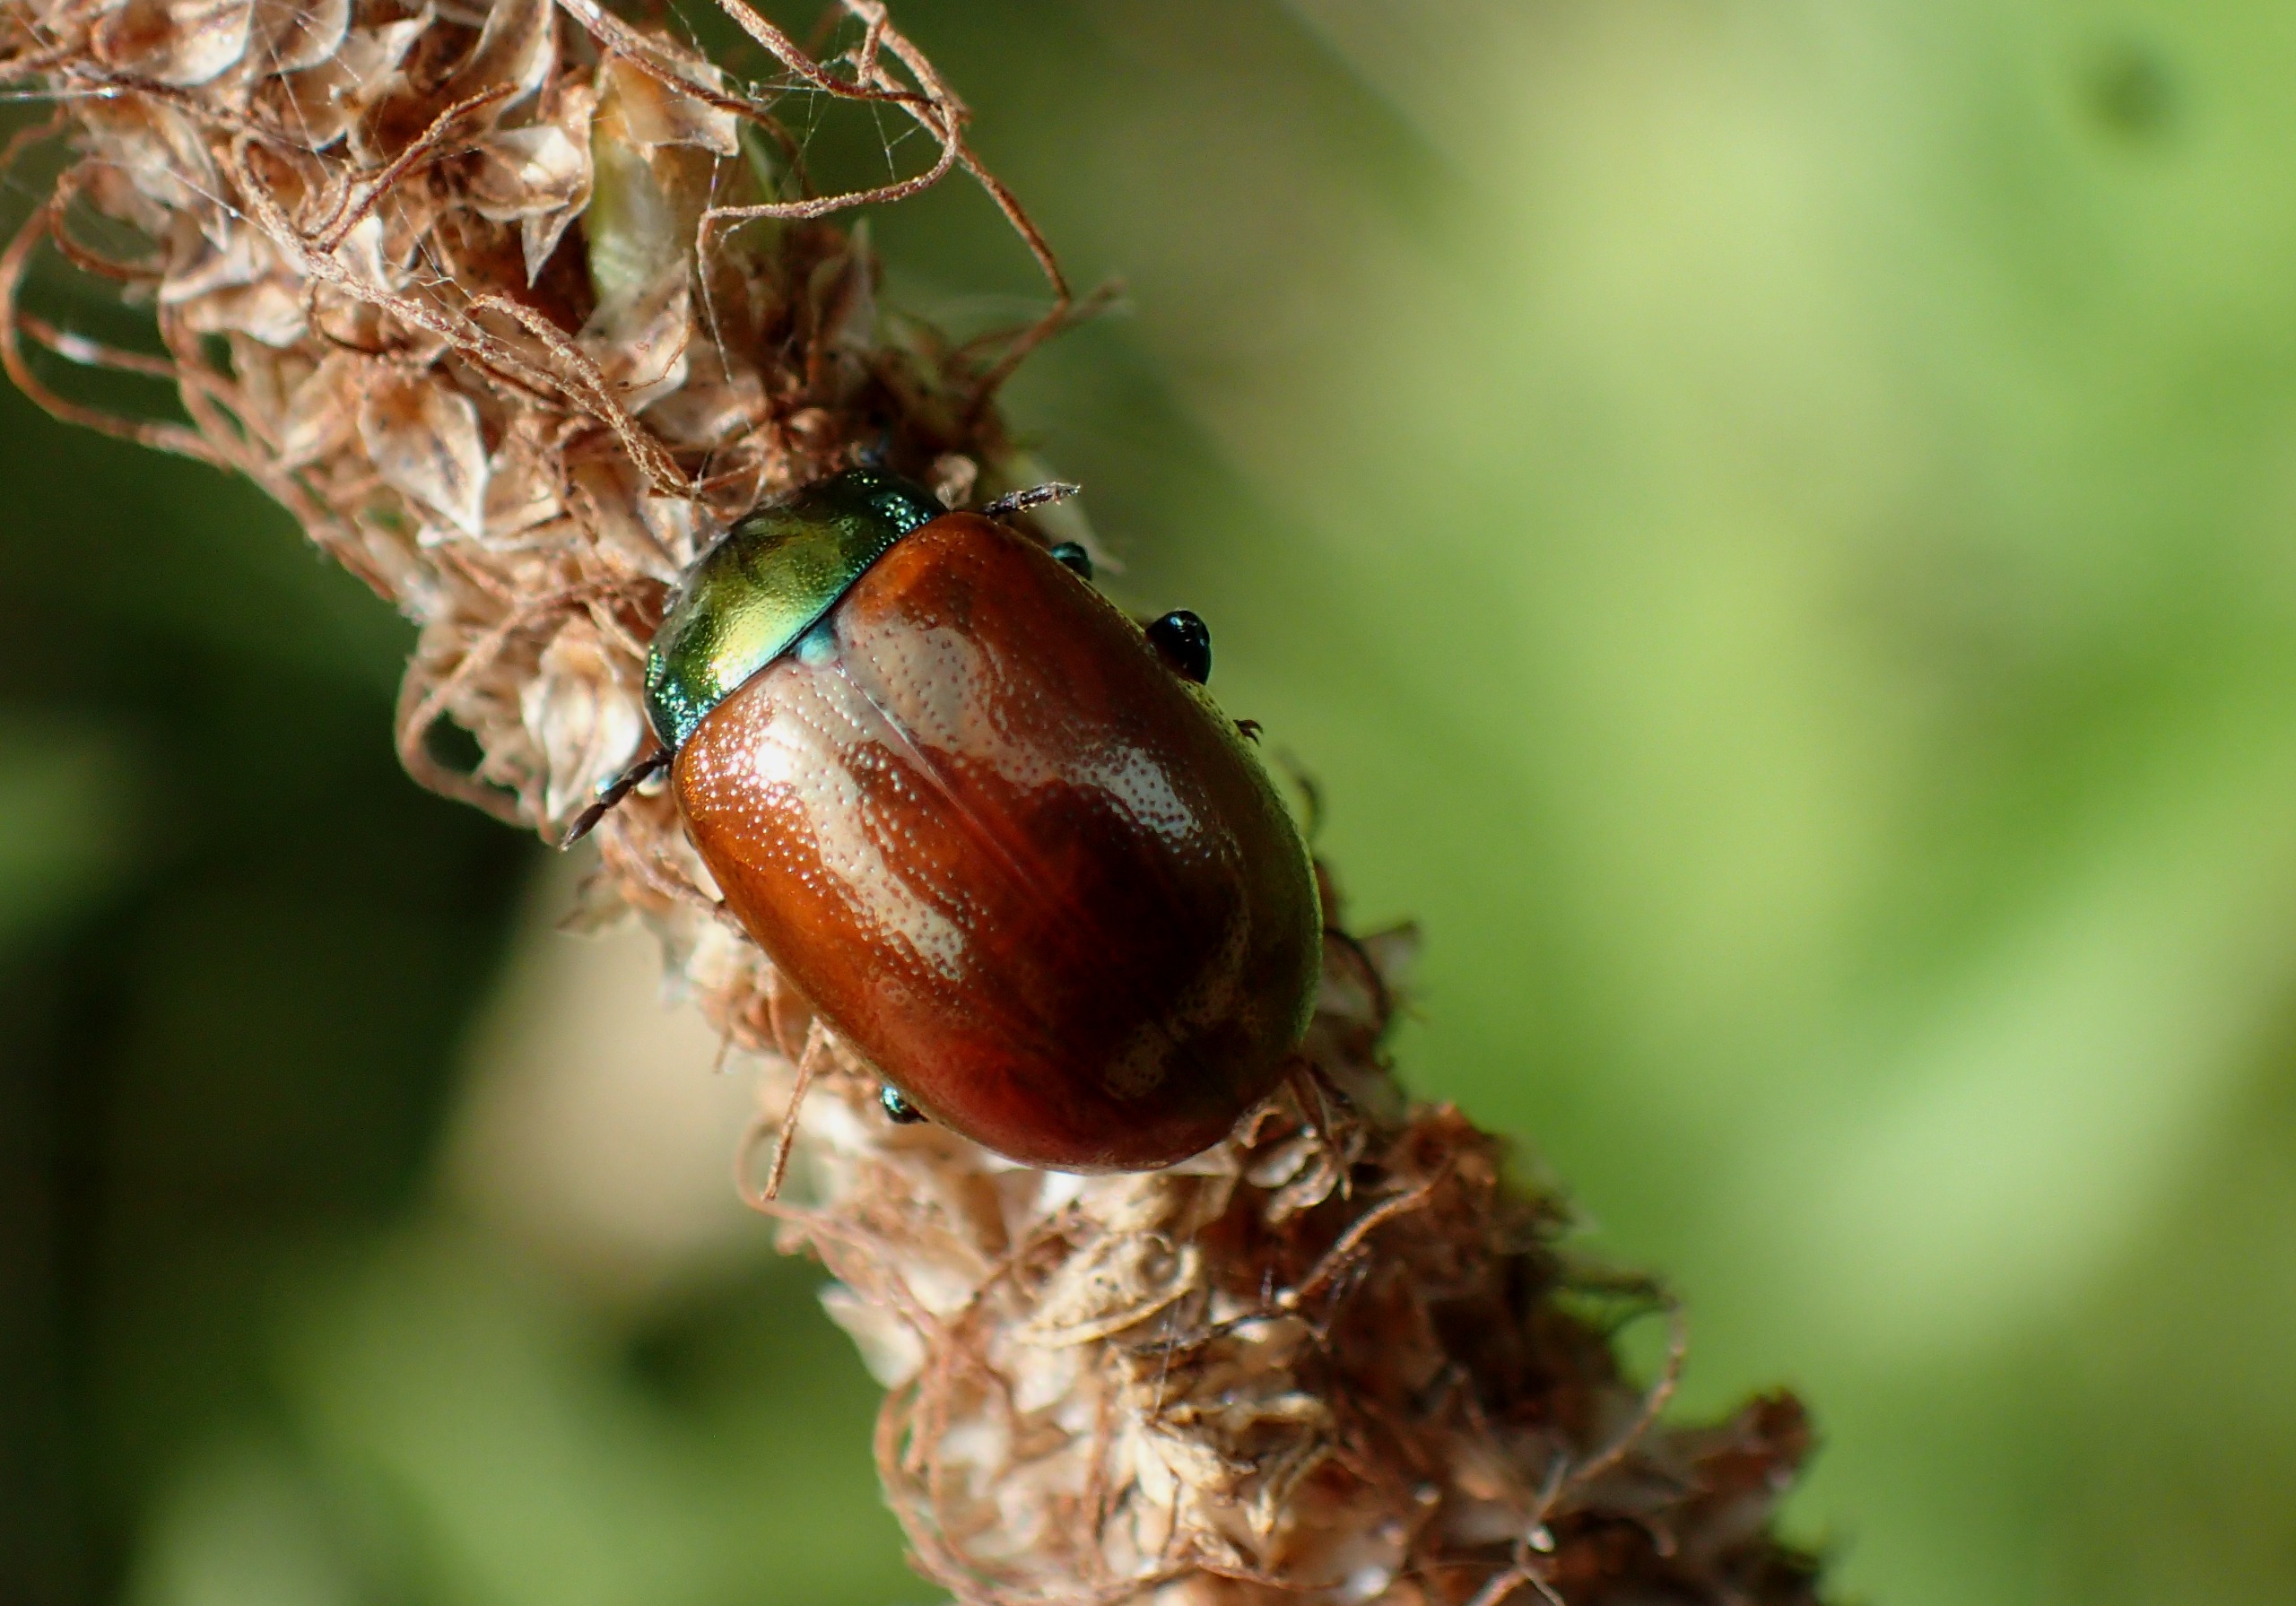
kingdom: Animalia
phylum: Arthropoda
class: Insecta
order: Coleoptera
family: Chrysomelidae
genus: Chrysomela
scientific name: Chrysomela polita
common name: Forskelligfarvet guldbille
